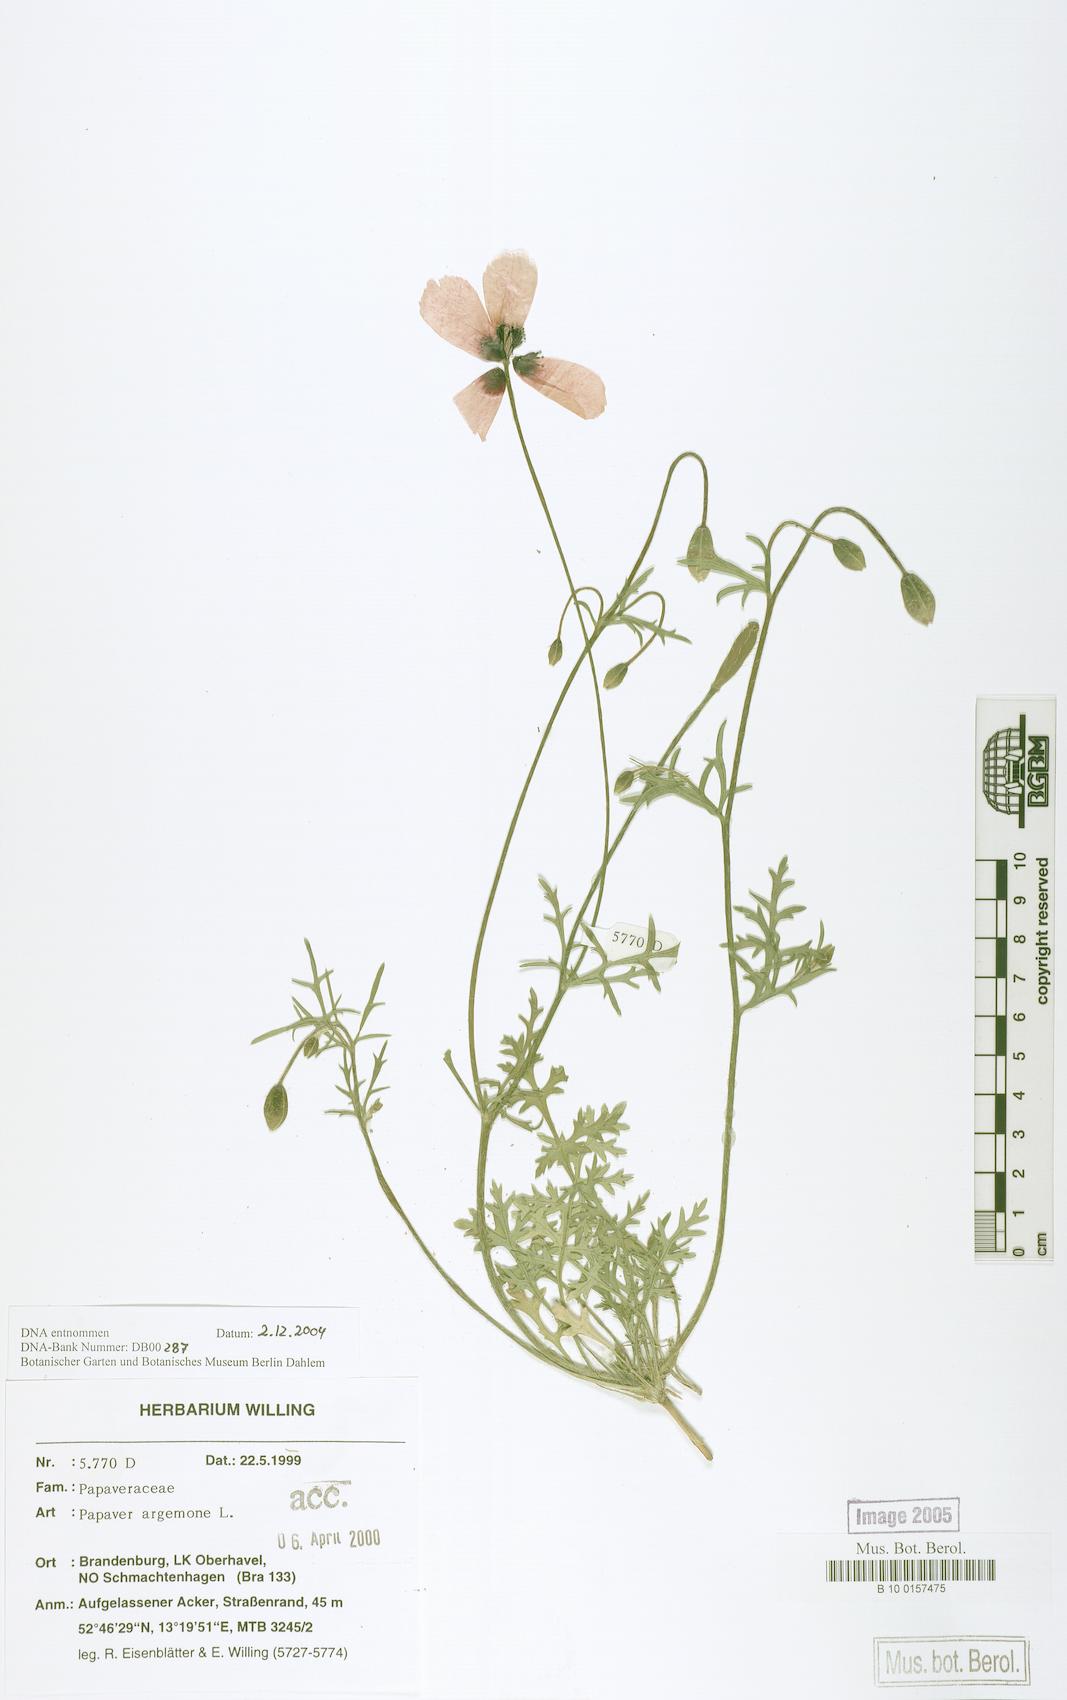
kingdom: Plantae
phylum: Tracheophyta
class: Magnoliopsida
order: Ranunculales
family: Papaveraceae
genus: Roemeria
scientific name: Roemeria argemone
